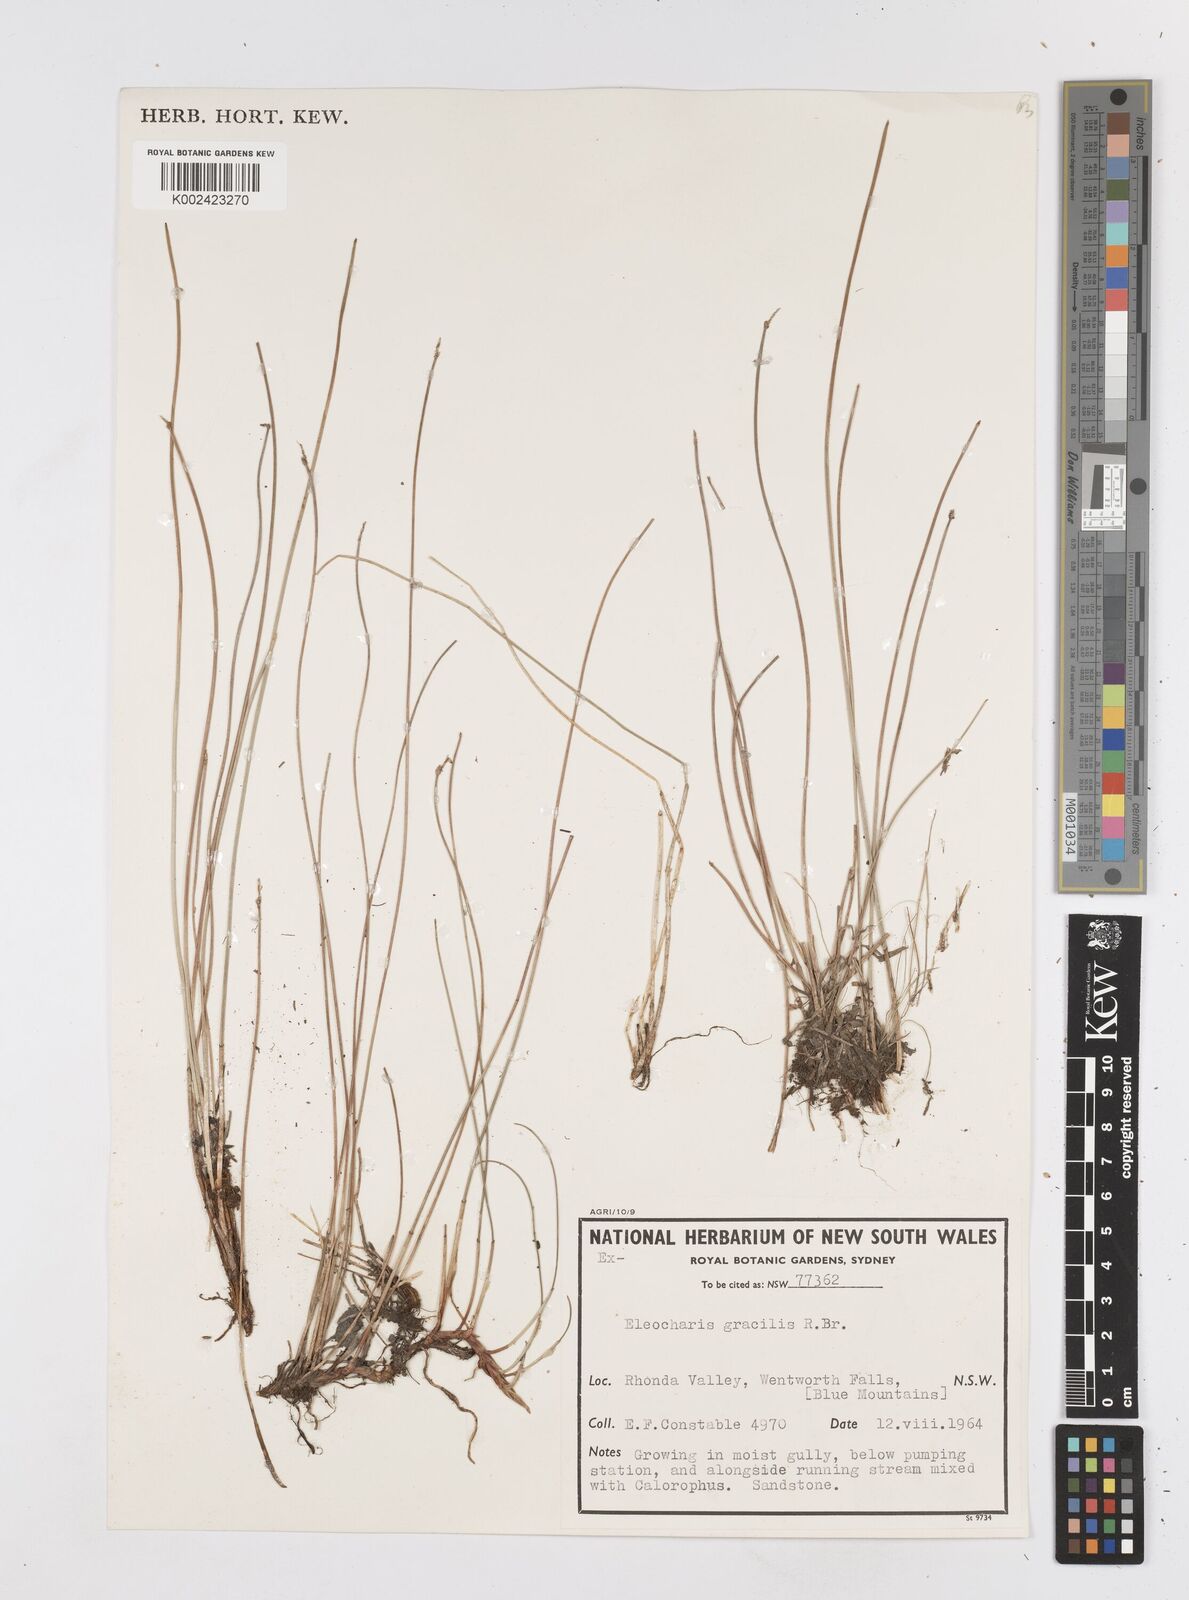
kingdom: Plantae
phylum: Tracheophyta
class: Liliopsida
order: Poales
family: Cyperaceae
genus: Eleocharis
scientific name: Eleocharis multicaulis
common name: Many-stalked spike-rush
